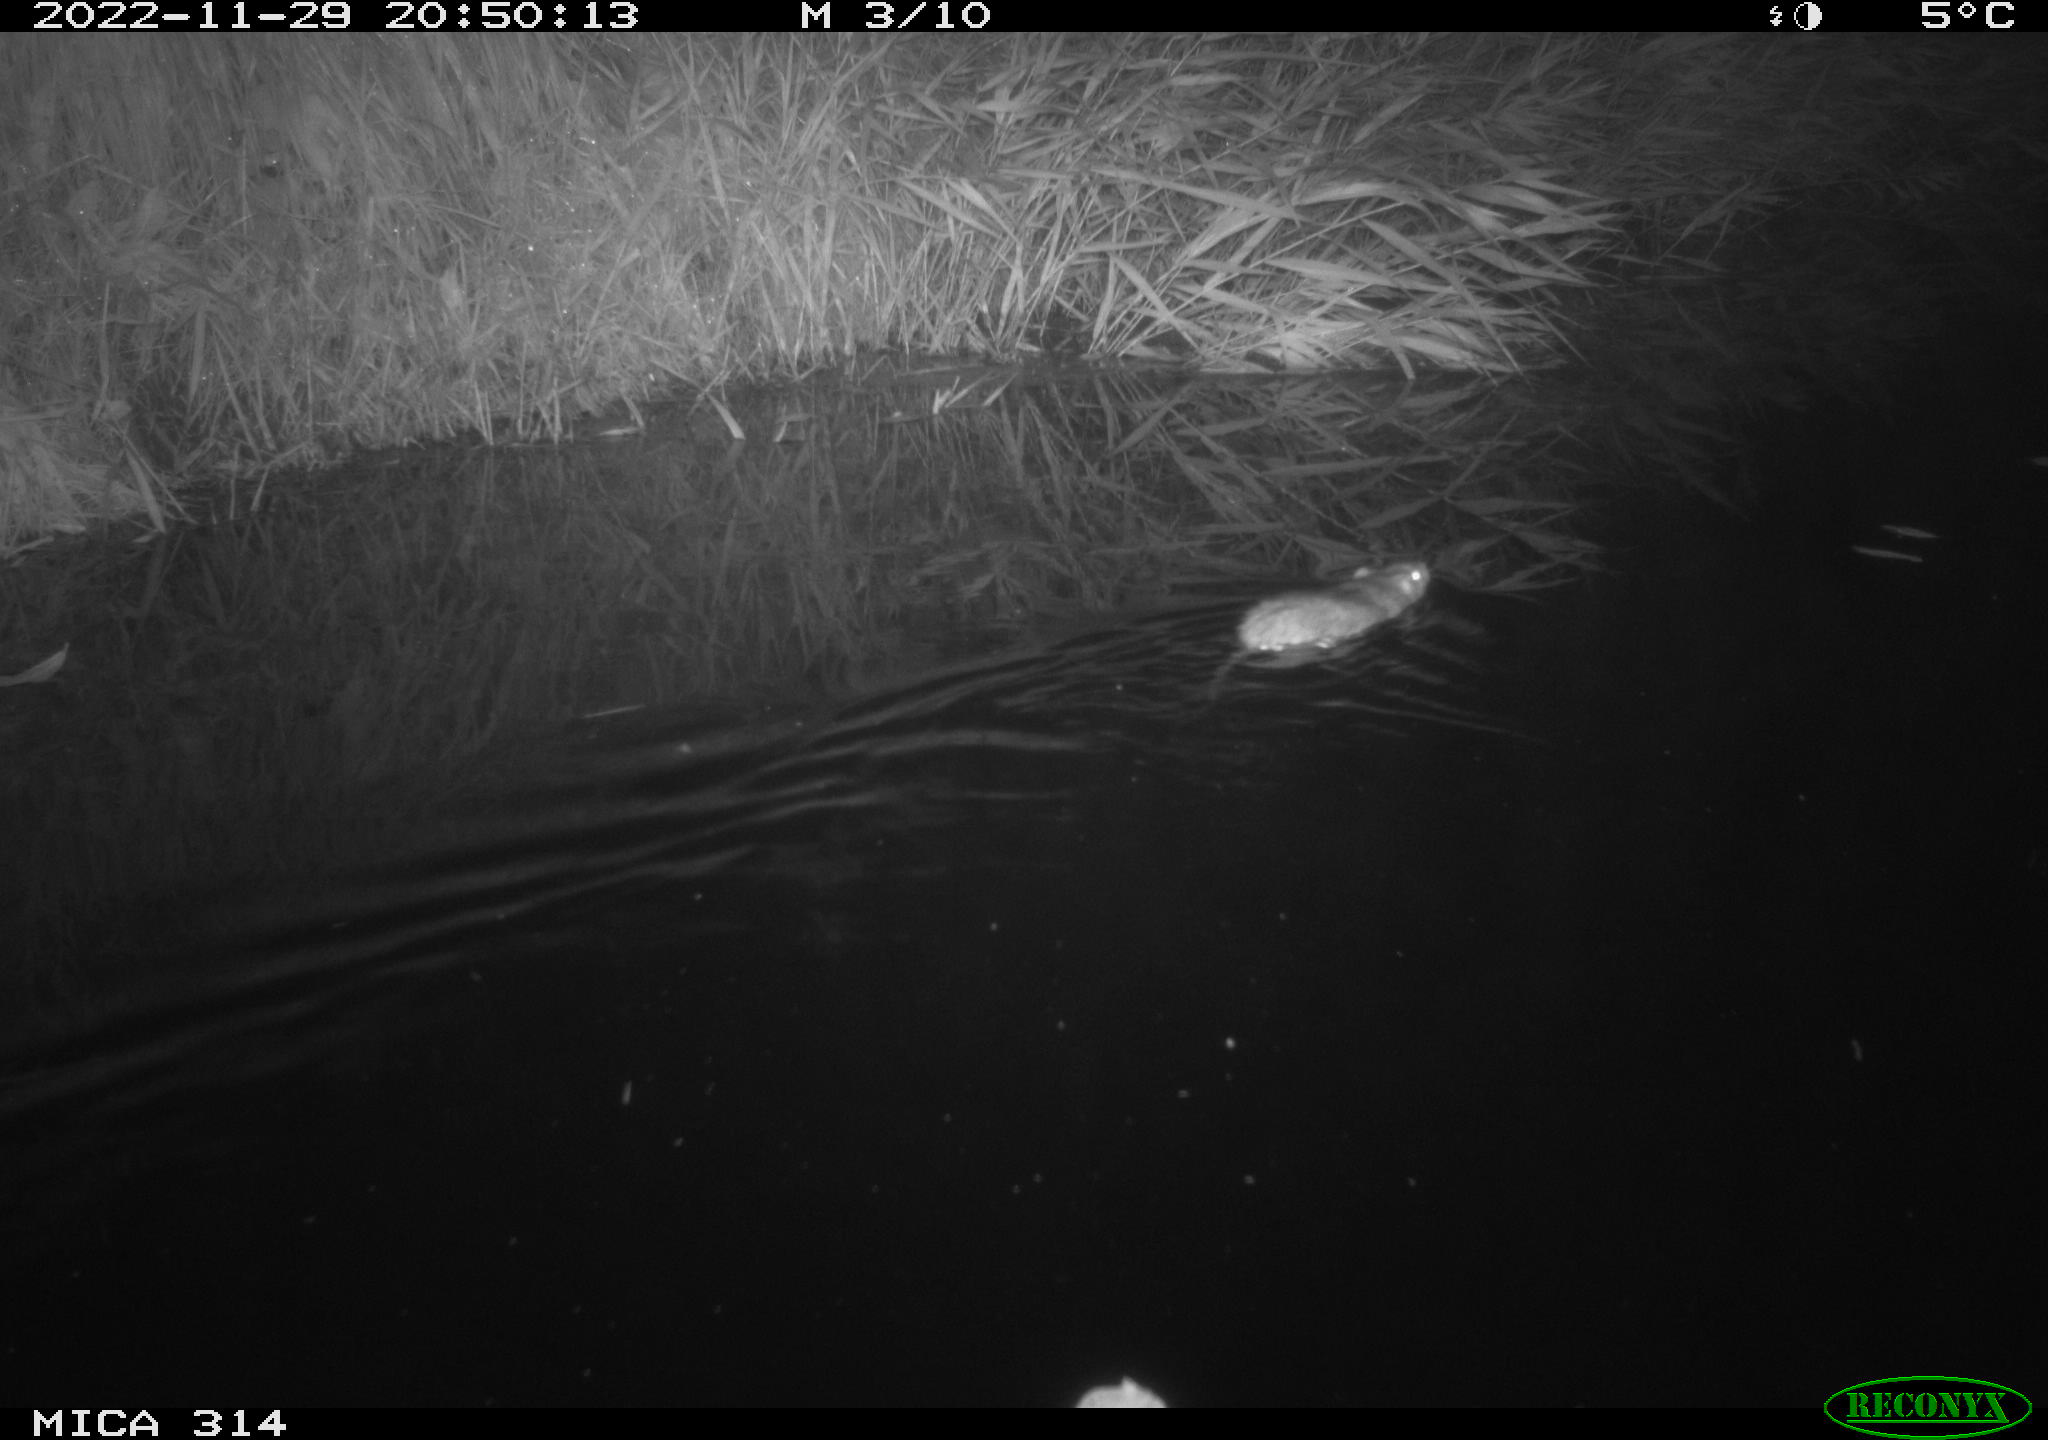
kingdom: Animalia
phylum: Chordata
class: Mammalia
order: Rodentia
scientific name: Rodentia
